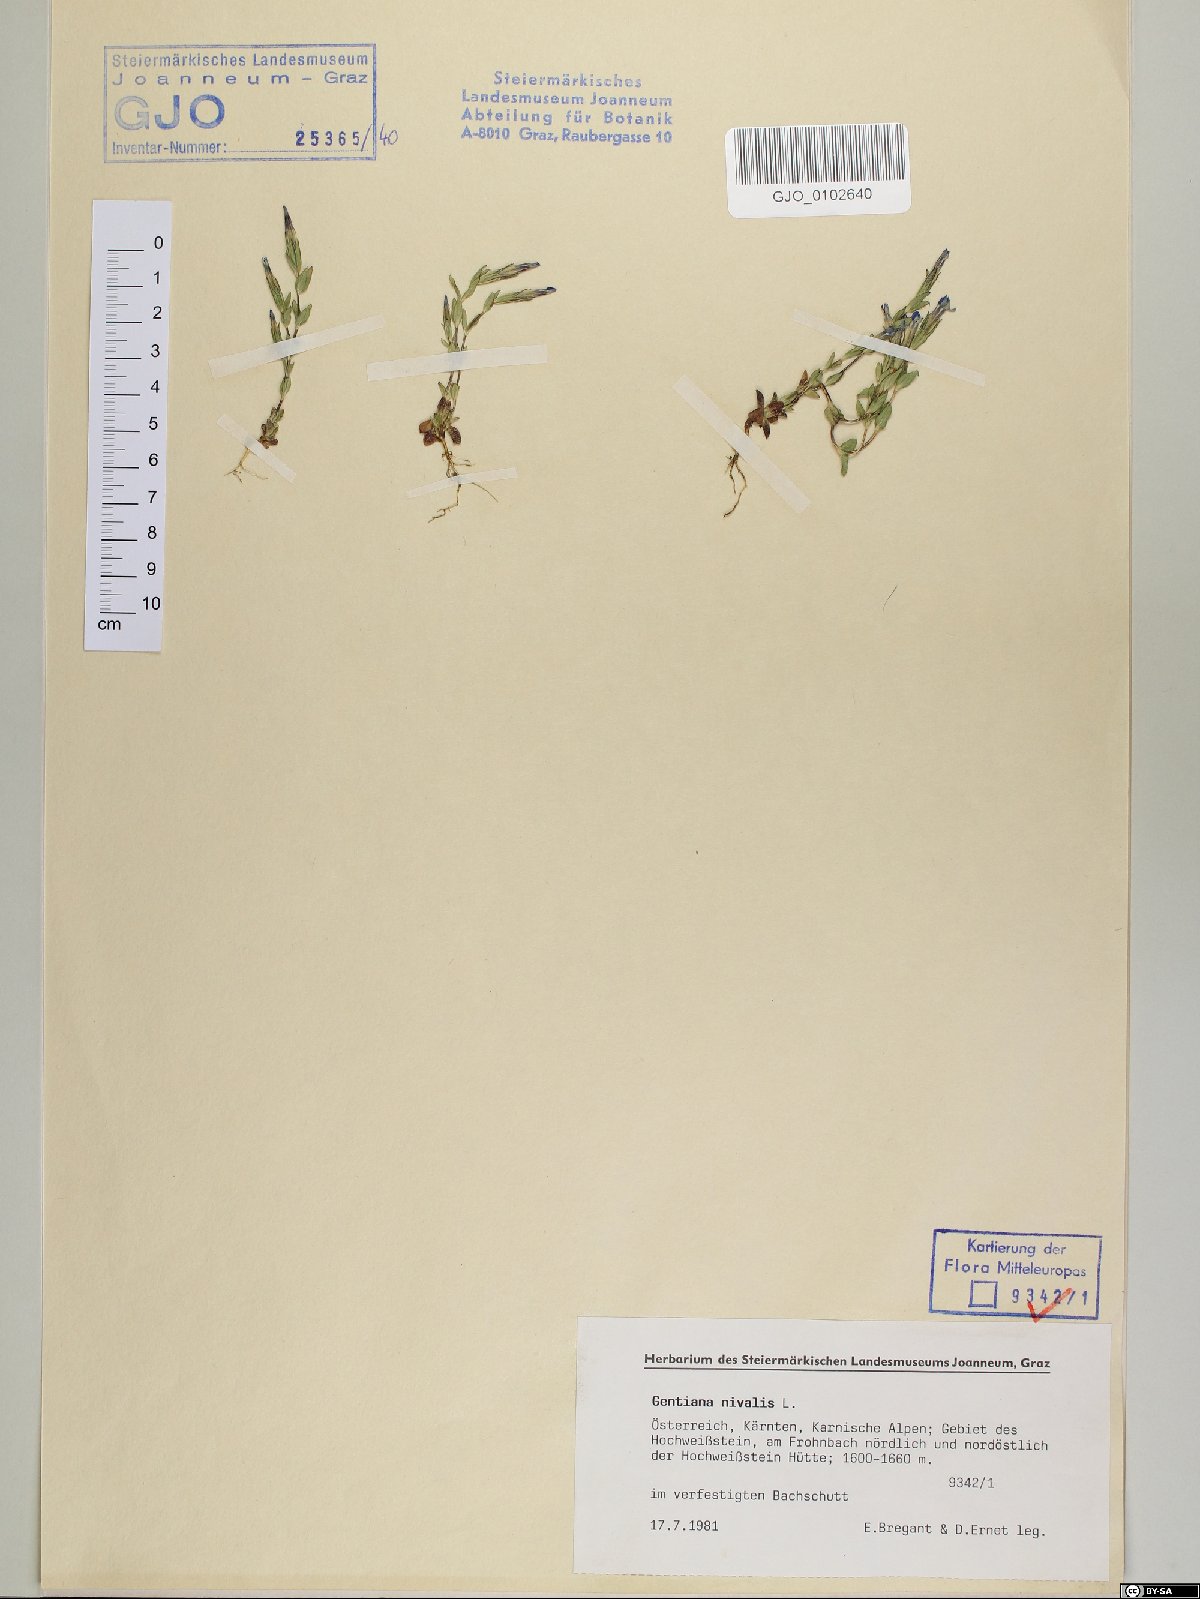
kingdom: Plantae
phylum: Tracheophyta
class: Magnoliopsida
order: Gentianales
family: Gentianaceae
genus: Gentiana
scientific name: Gentiana nivalis
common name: Alpine gentian
